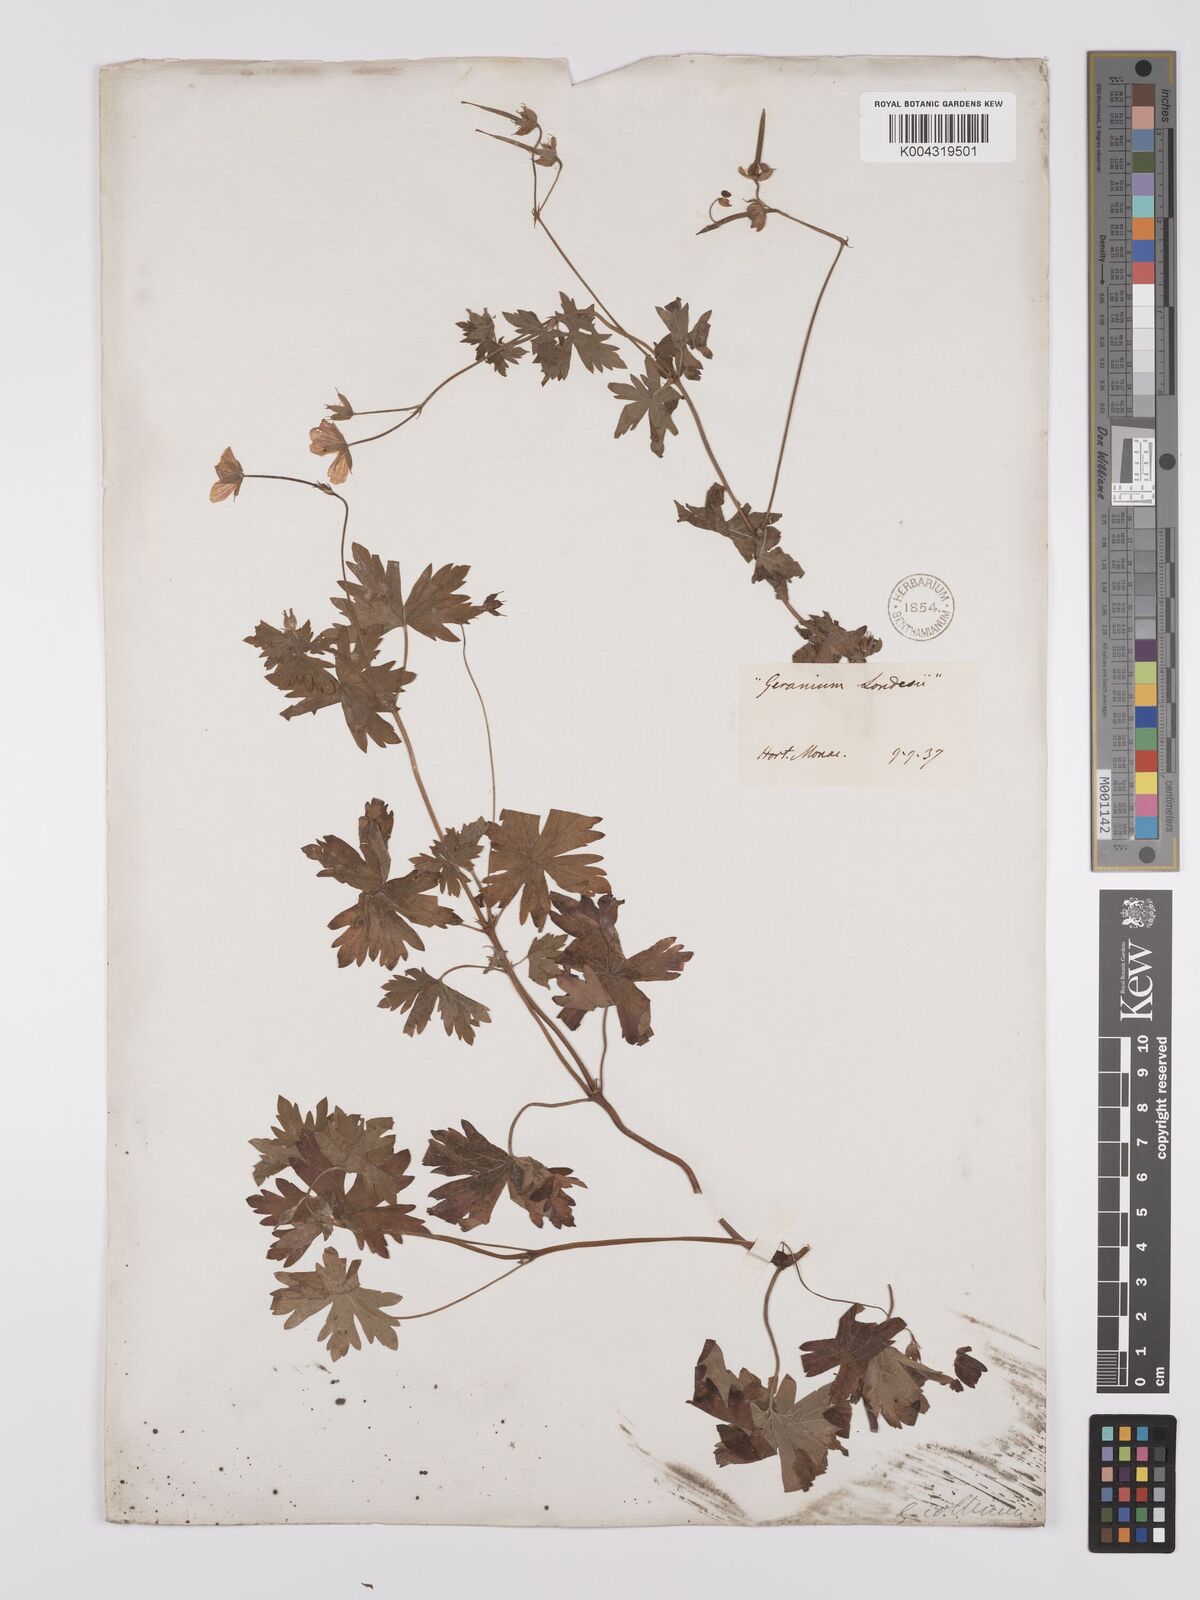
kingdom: Plantae
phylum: Tracheophyta
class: Magnoliopsida
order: Geraniales
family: Geraniaceae
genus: Geranium
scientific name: Geranium collinum
